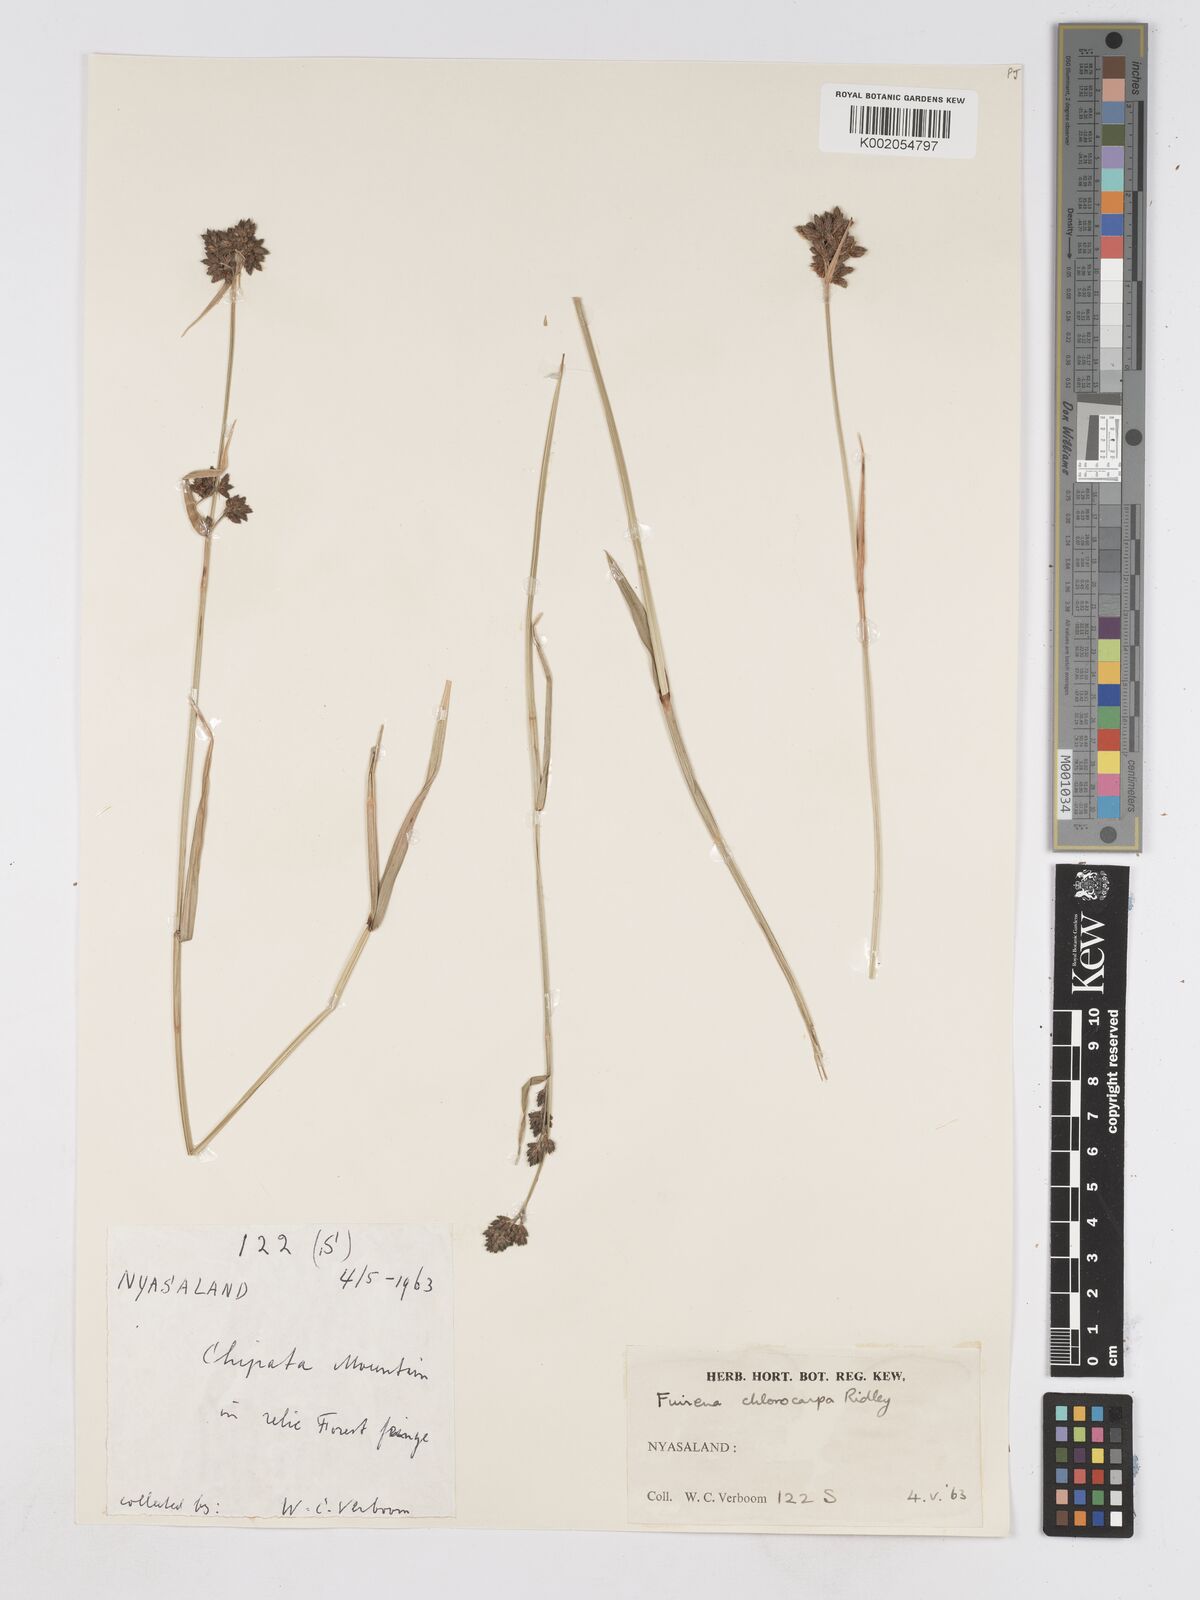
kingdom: Plantae
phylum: Tracheophyta
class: Liliopsida
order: Poales
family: Cyperaceae
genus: Fuirena
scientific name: Fuirena stricta
